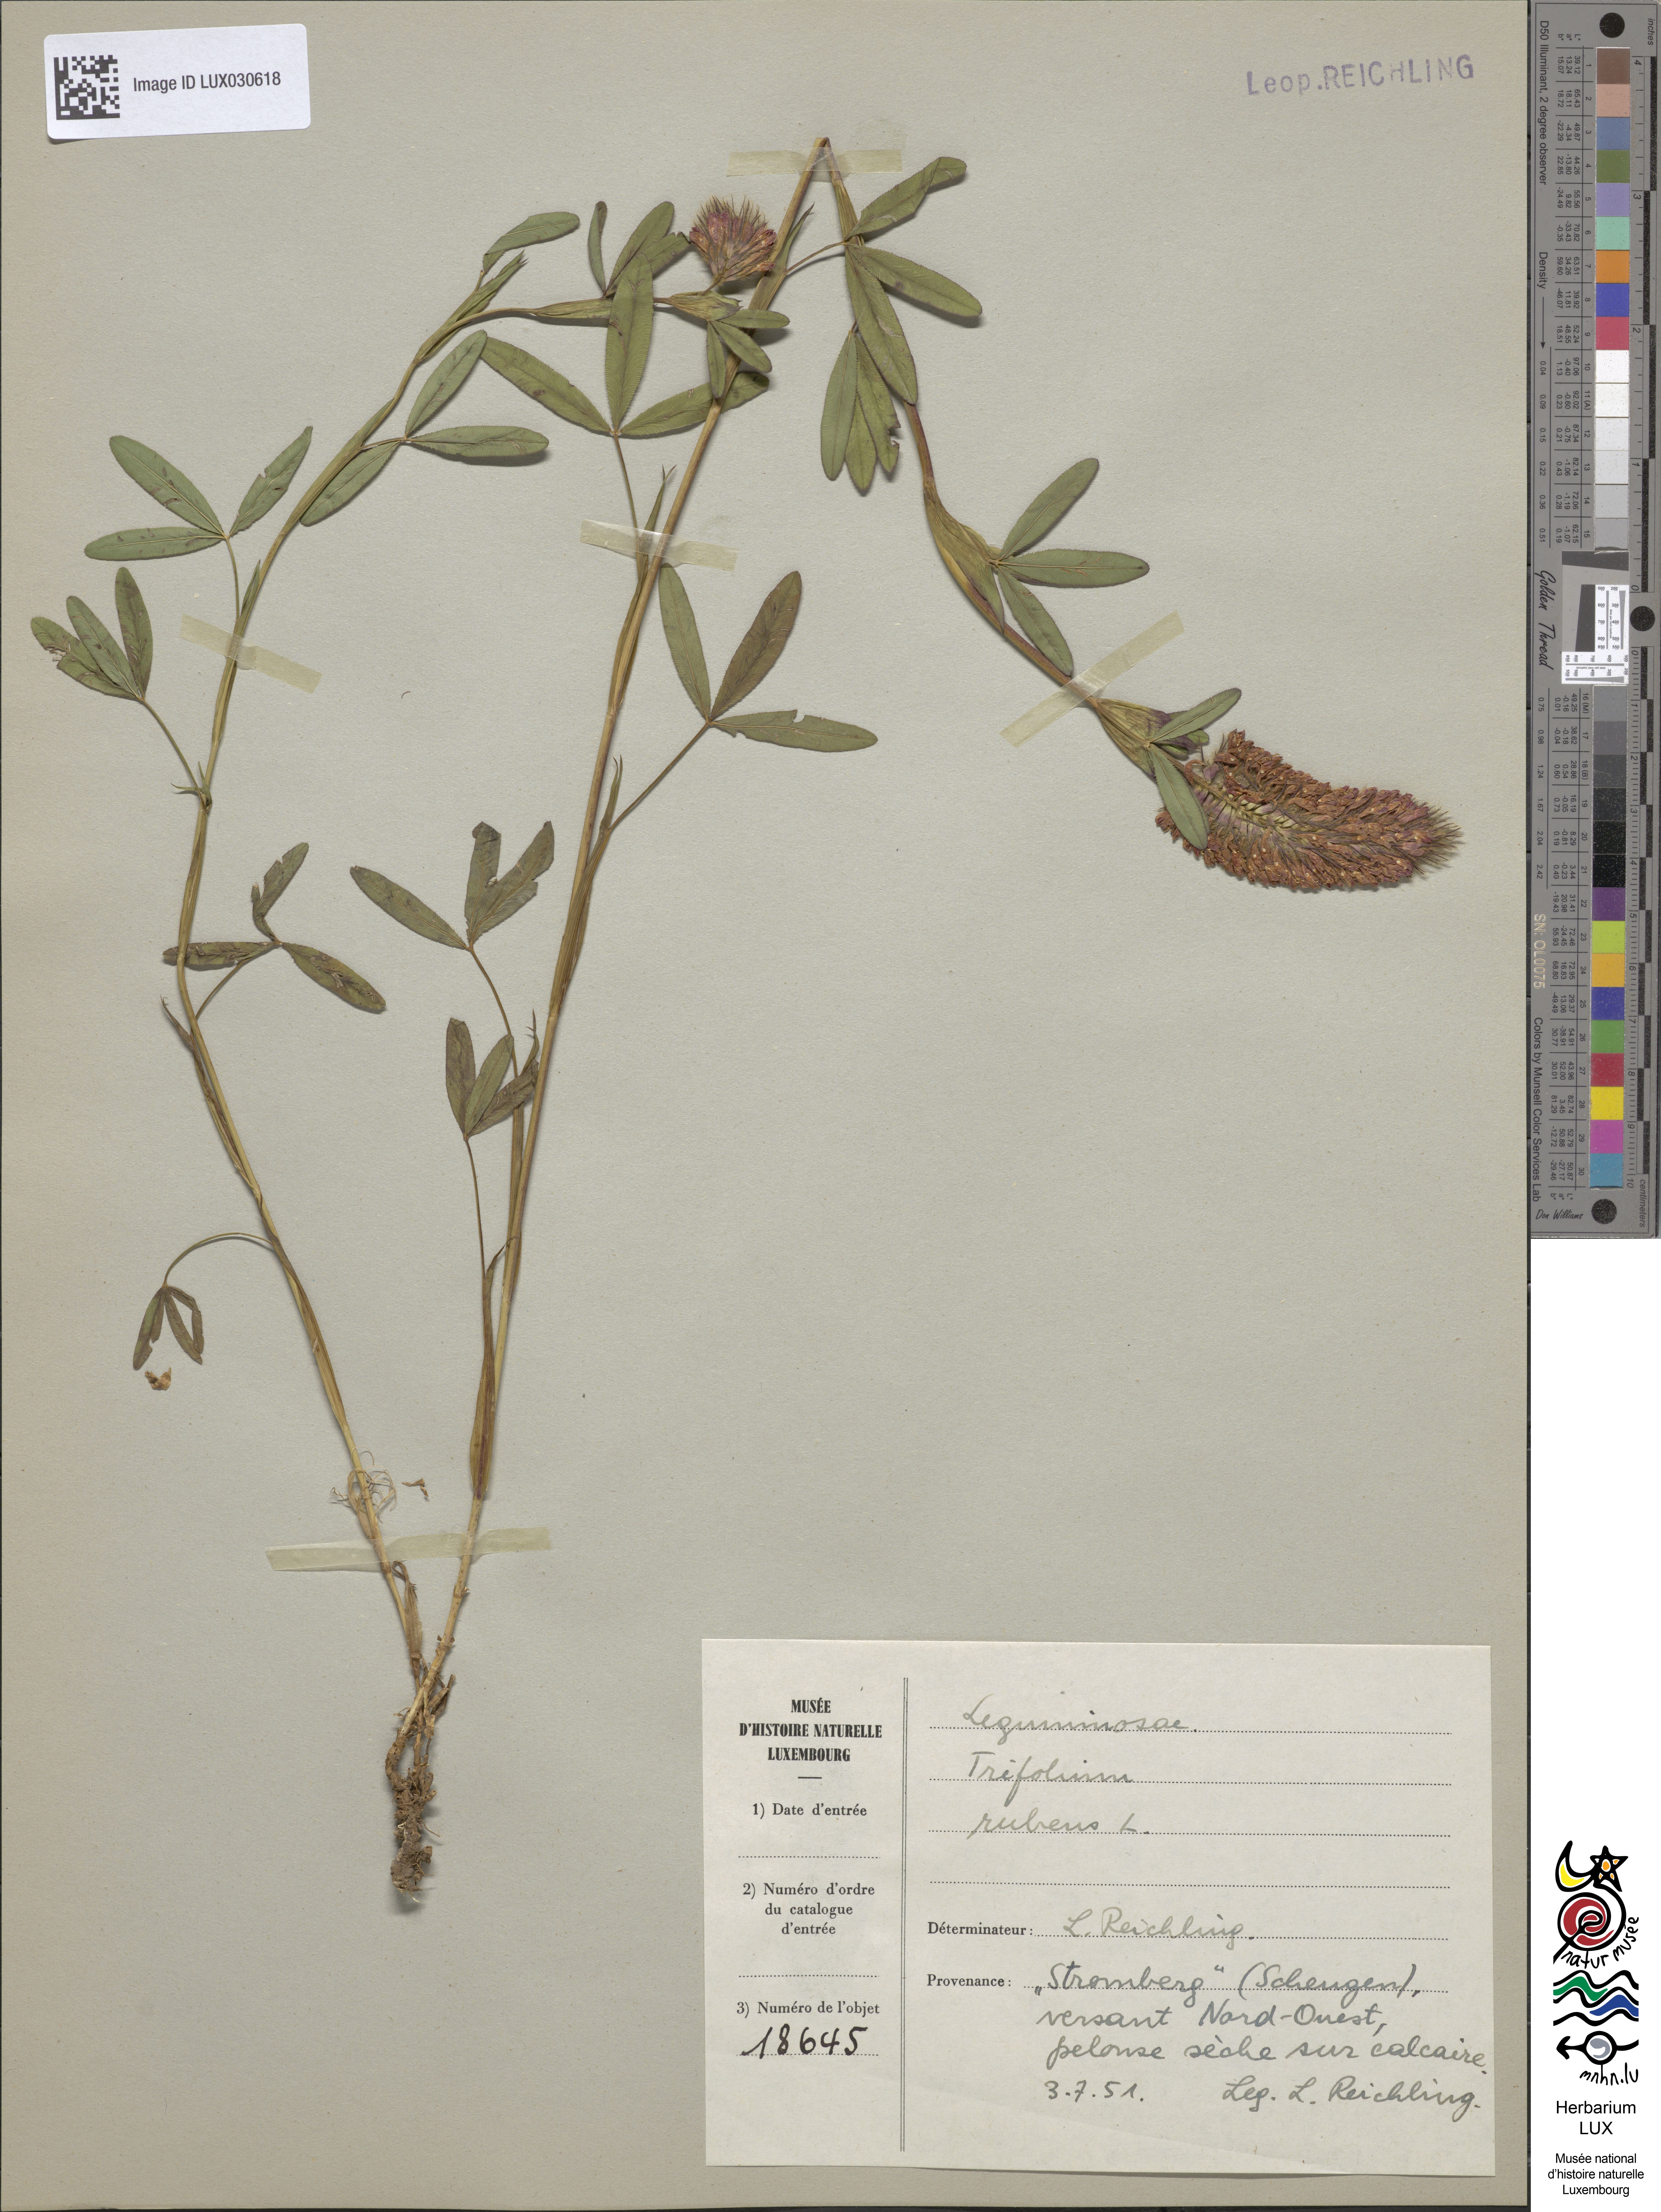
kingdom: Plantae
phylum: Tracheophyta
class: Magnoliopsida
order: Fabales
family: Fabaceae
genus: Trifolium
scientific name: Trifolium rubens
